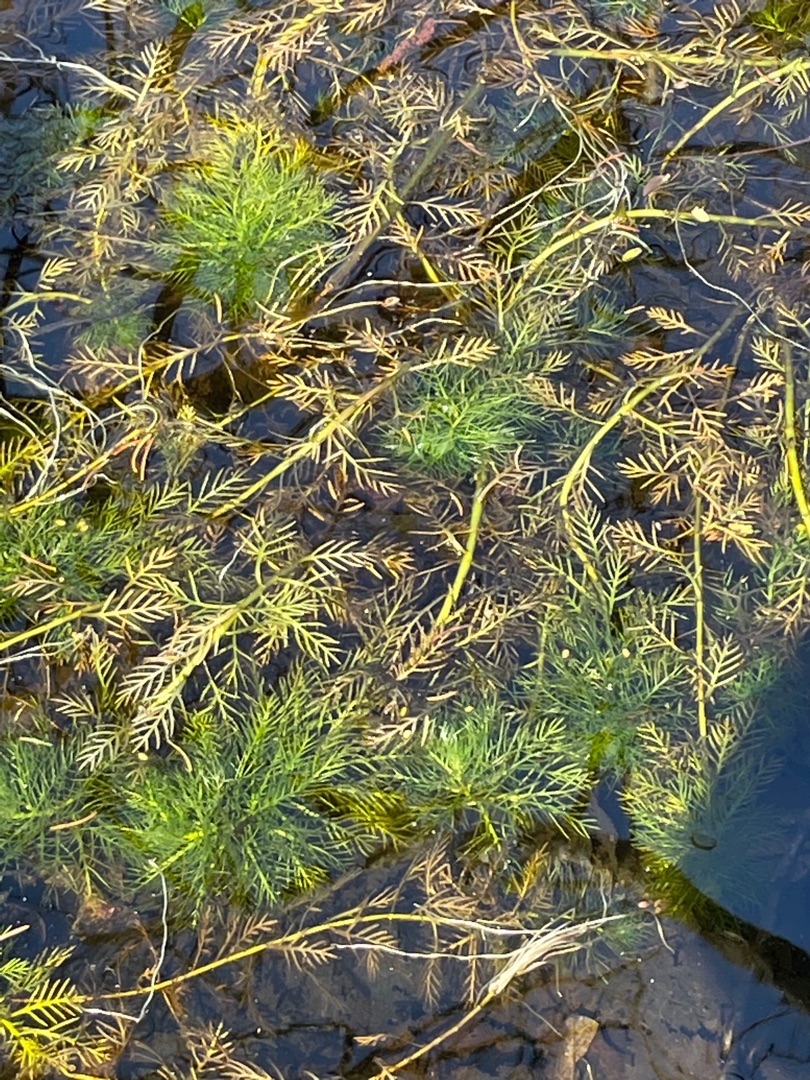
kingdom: Plantae
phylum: Tracheophyta
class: Magnoliopsida
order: Ericales
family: Primulaceae
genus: Hottonia
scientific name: Hottonia palustris
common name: Vandrøllike
